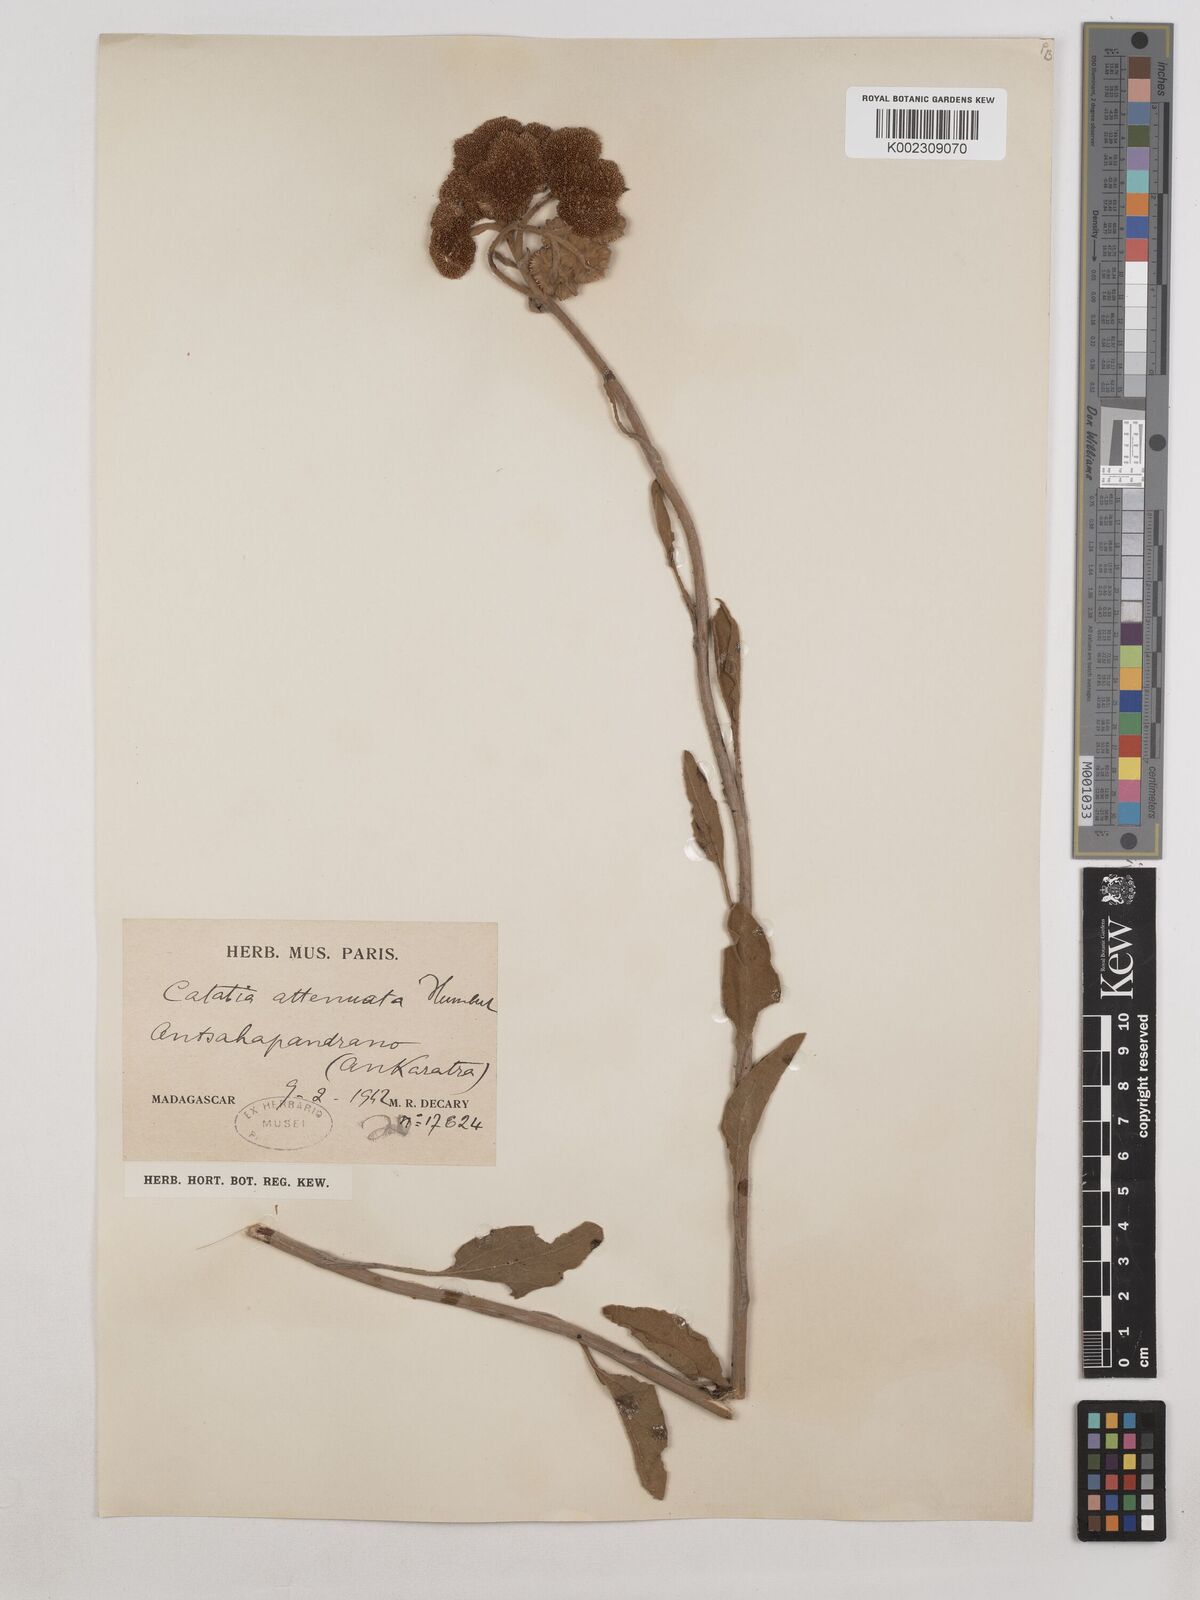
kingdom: Plantae
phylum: Tracheophyta
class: Magnoliopsida
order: Asterales
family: Asteraceae
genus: Catatia
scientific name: Catatia attenuata
